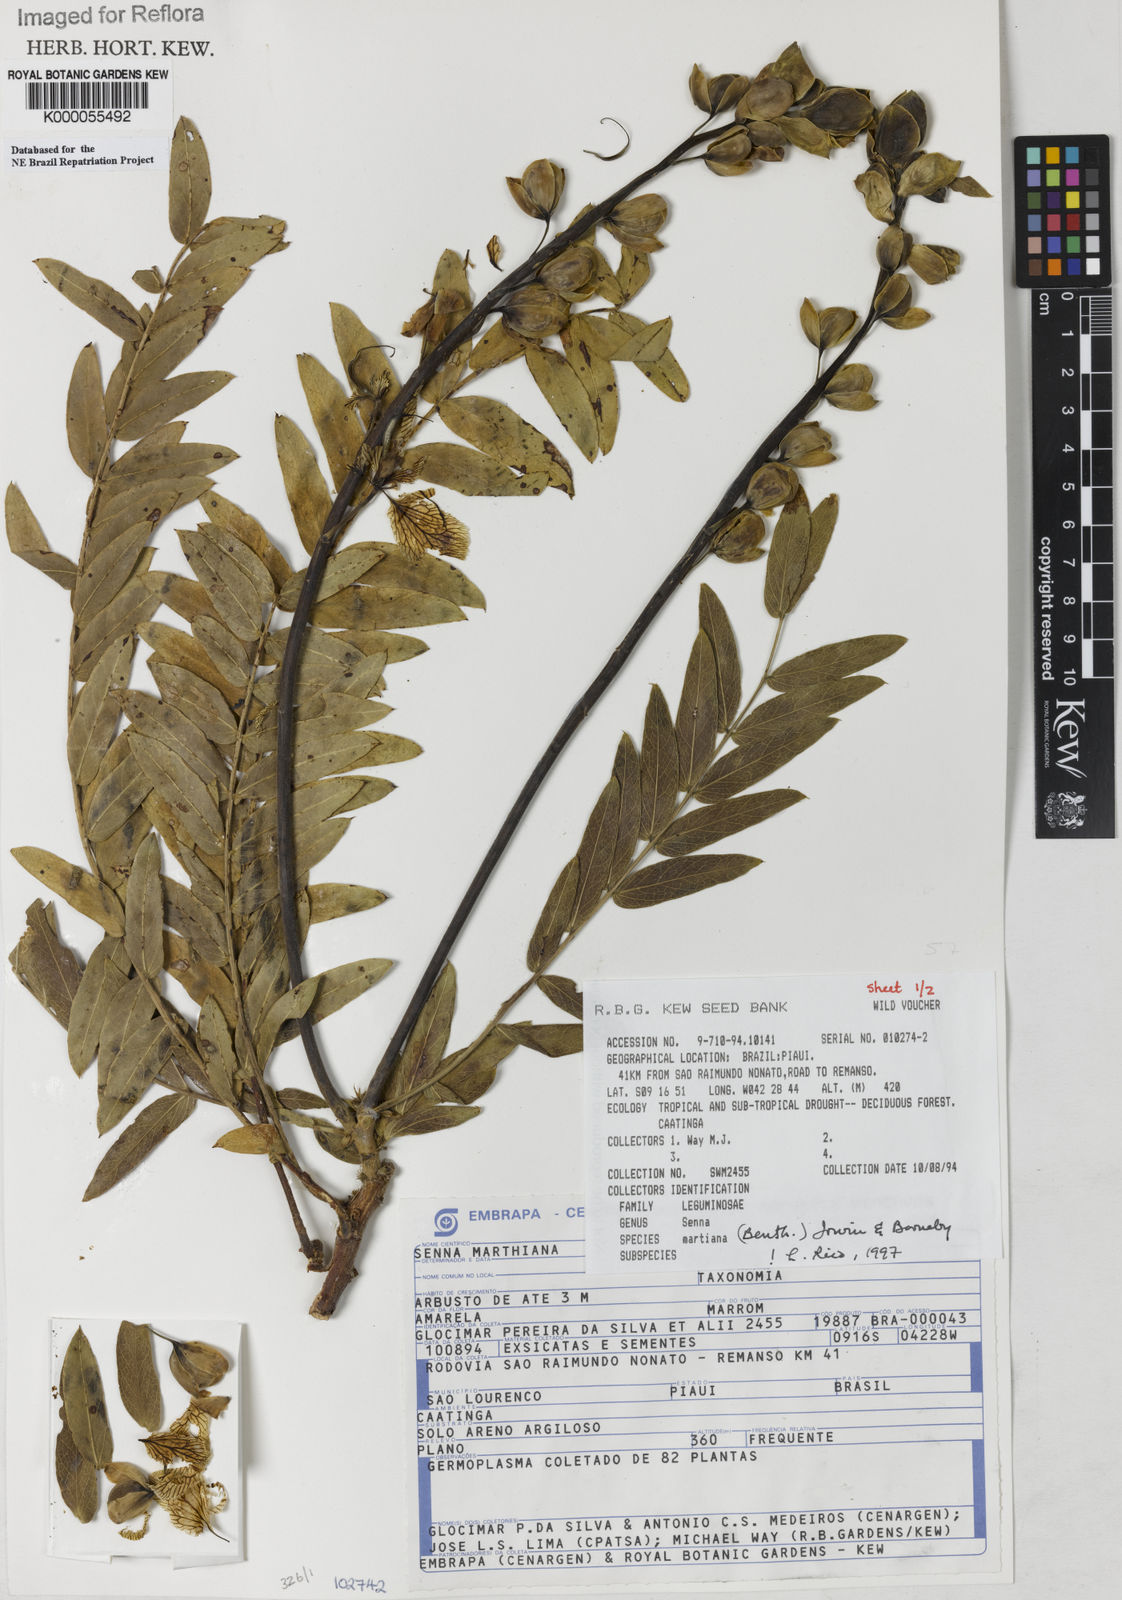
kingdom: Plantae
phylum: Tracheophyta
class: Magnoliopsida
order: Fabales
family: Fabaceae
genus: Senna
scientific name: Senna martiana
